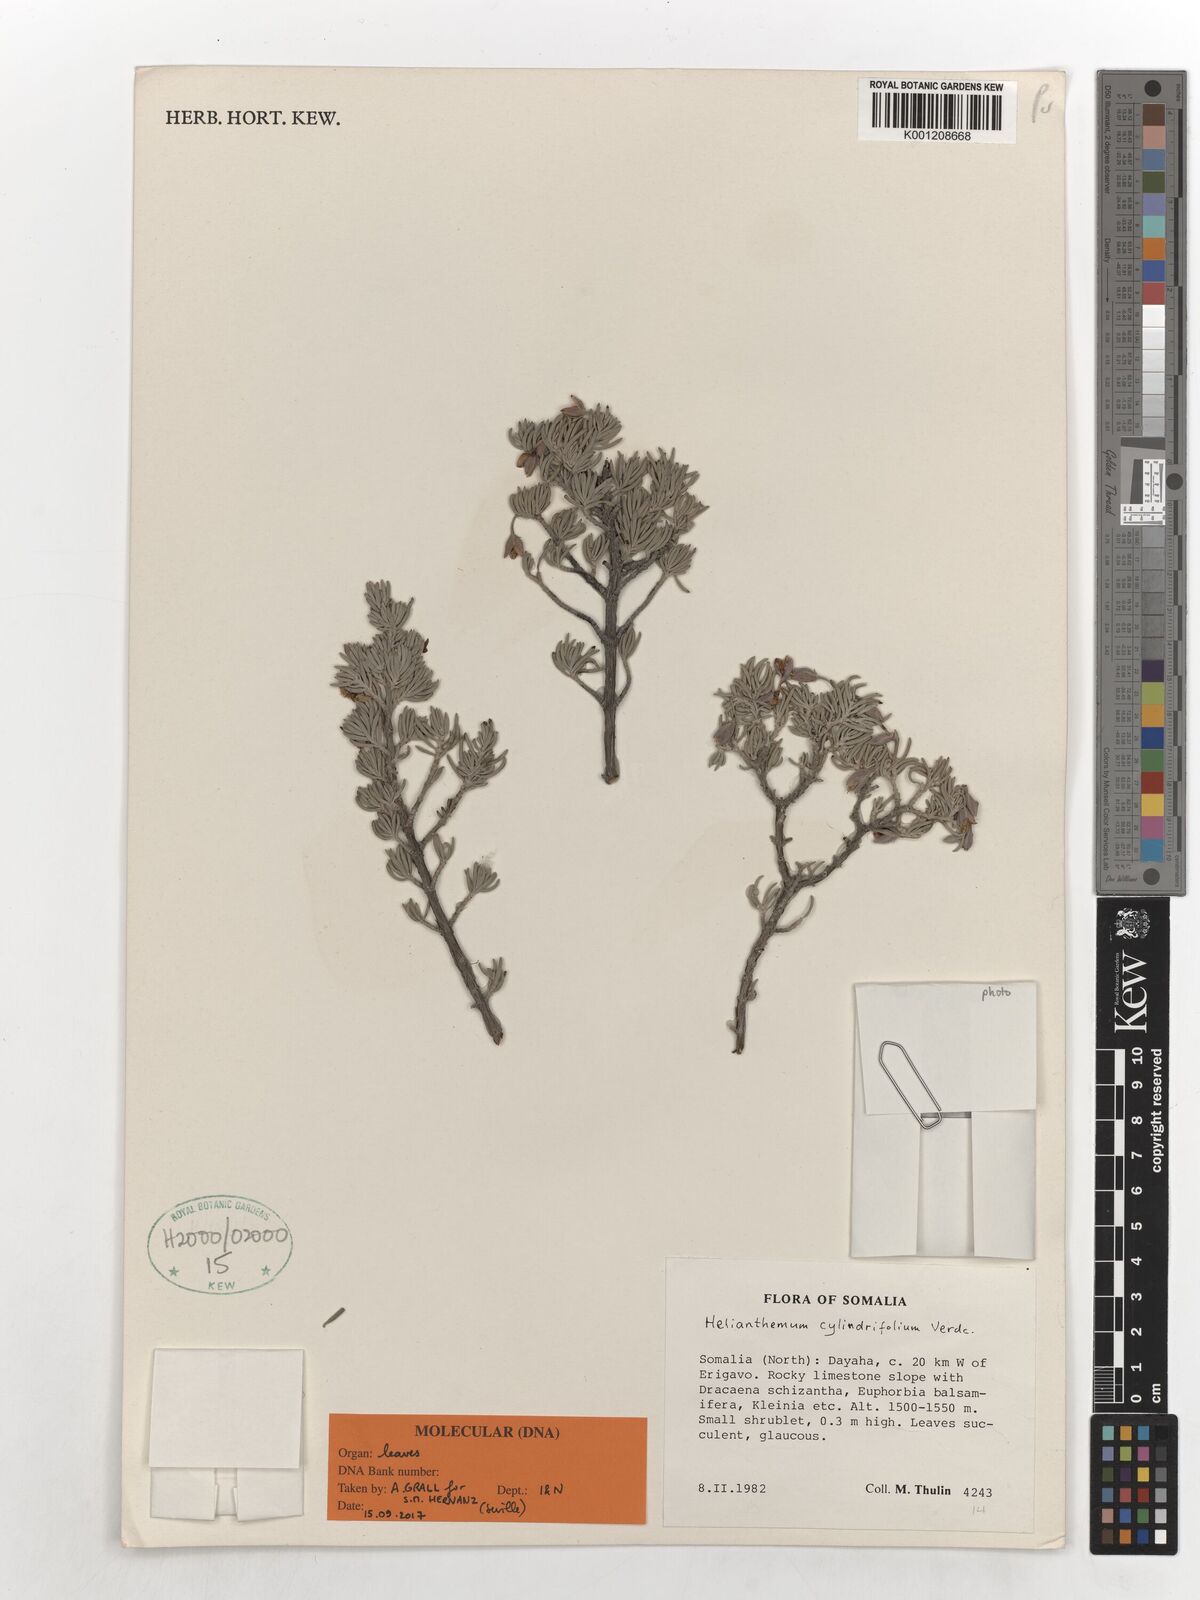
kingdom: Plantae
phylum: Tracheophyta
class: Magnoliopsida
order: Malvales
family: Cistaceae
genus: Helianthemum
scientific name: Helianthemum cylindrifolium
